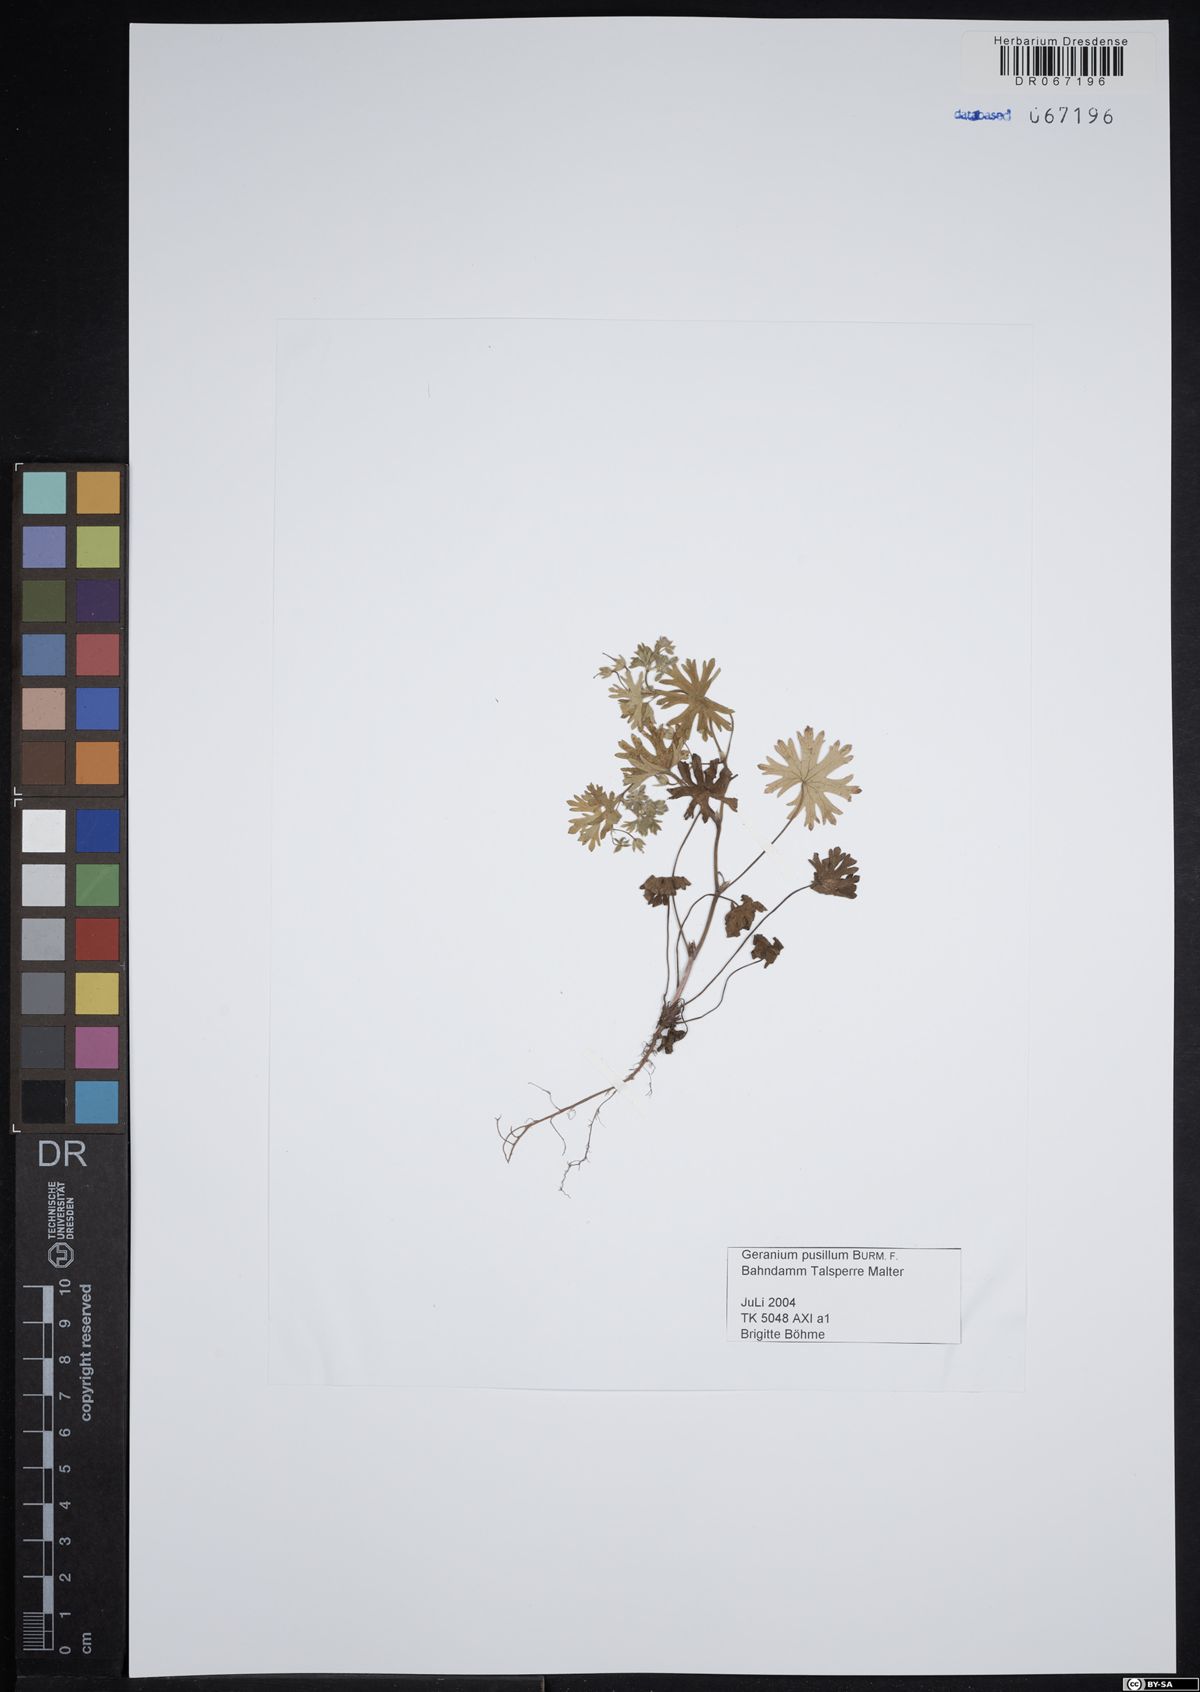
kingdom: Plantae
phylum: Tracheophyta
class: Magnoliopsida
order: Geraniales
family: Geraniaceae
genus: Geranium
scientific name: Geranium pusillum
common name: Small geranium
